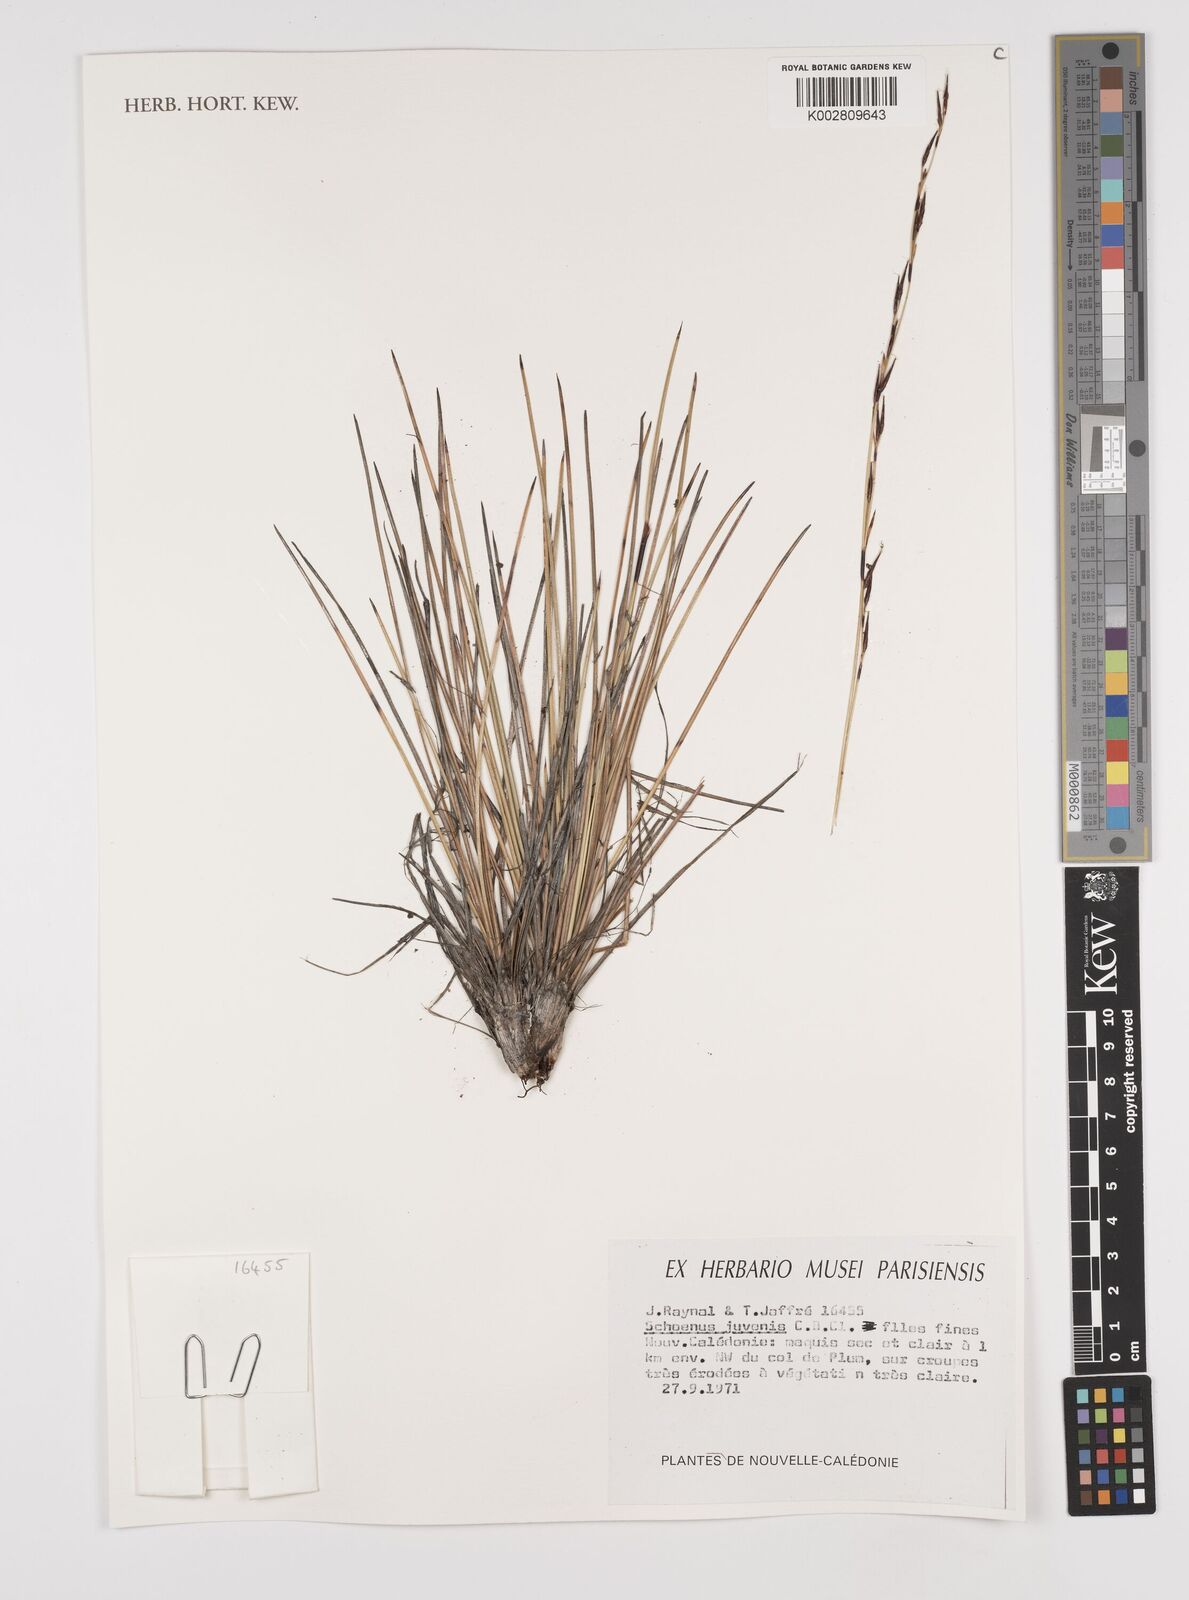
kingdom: Plantae
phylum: Tracheophyta
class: Liliopsida
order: Poales
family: Cyperaceae
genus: Schoenus
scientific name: Schoenus neocaledonicus
